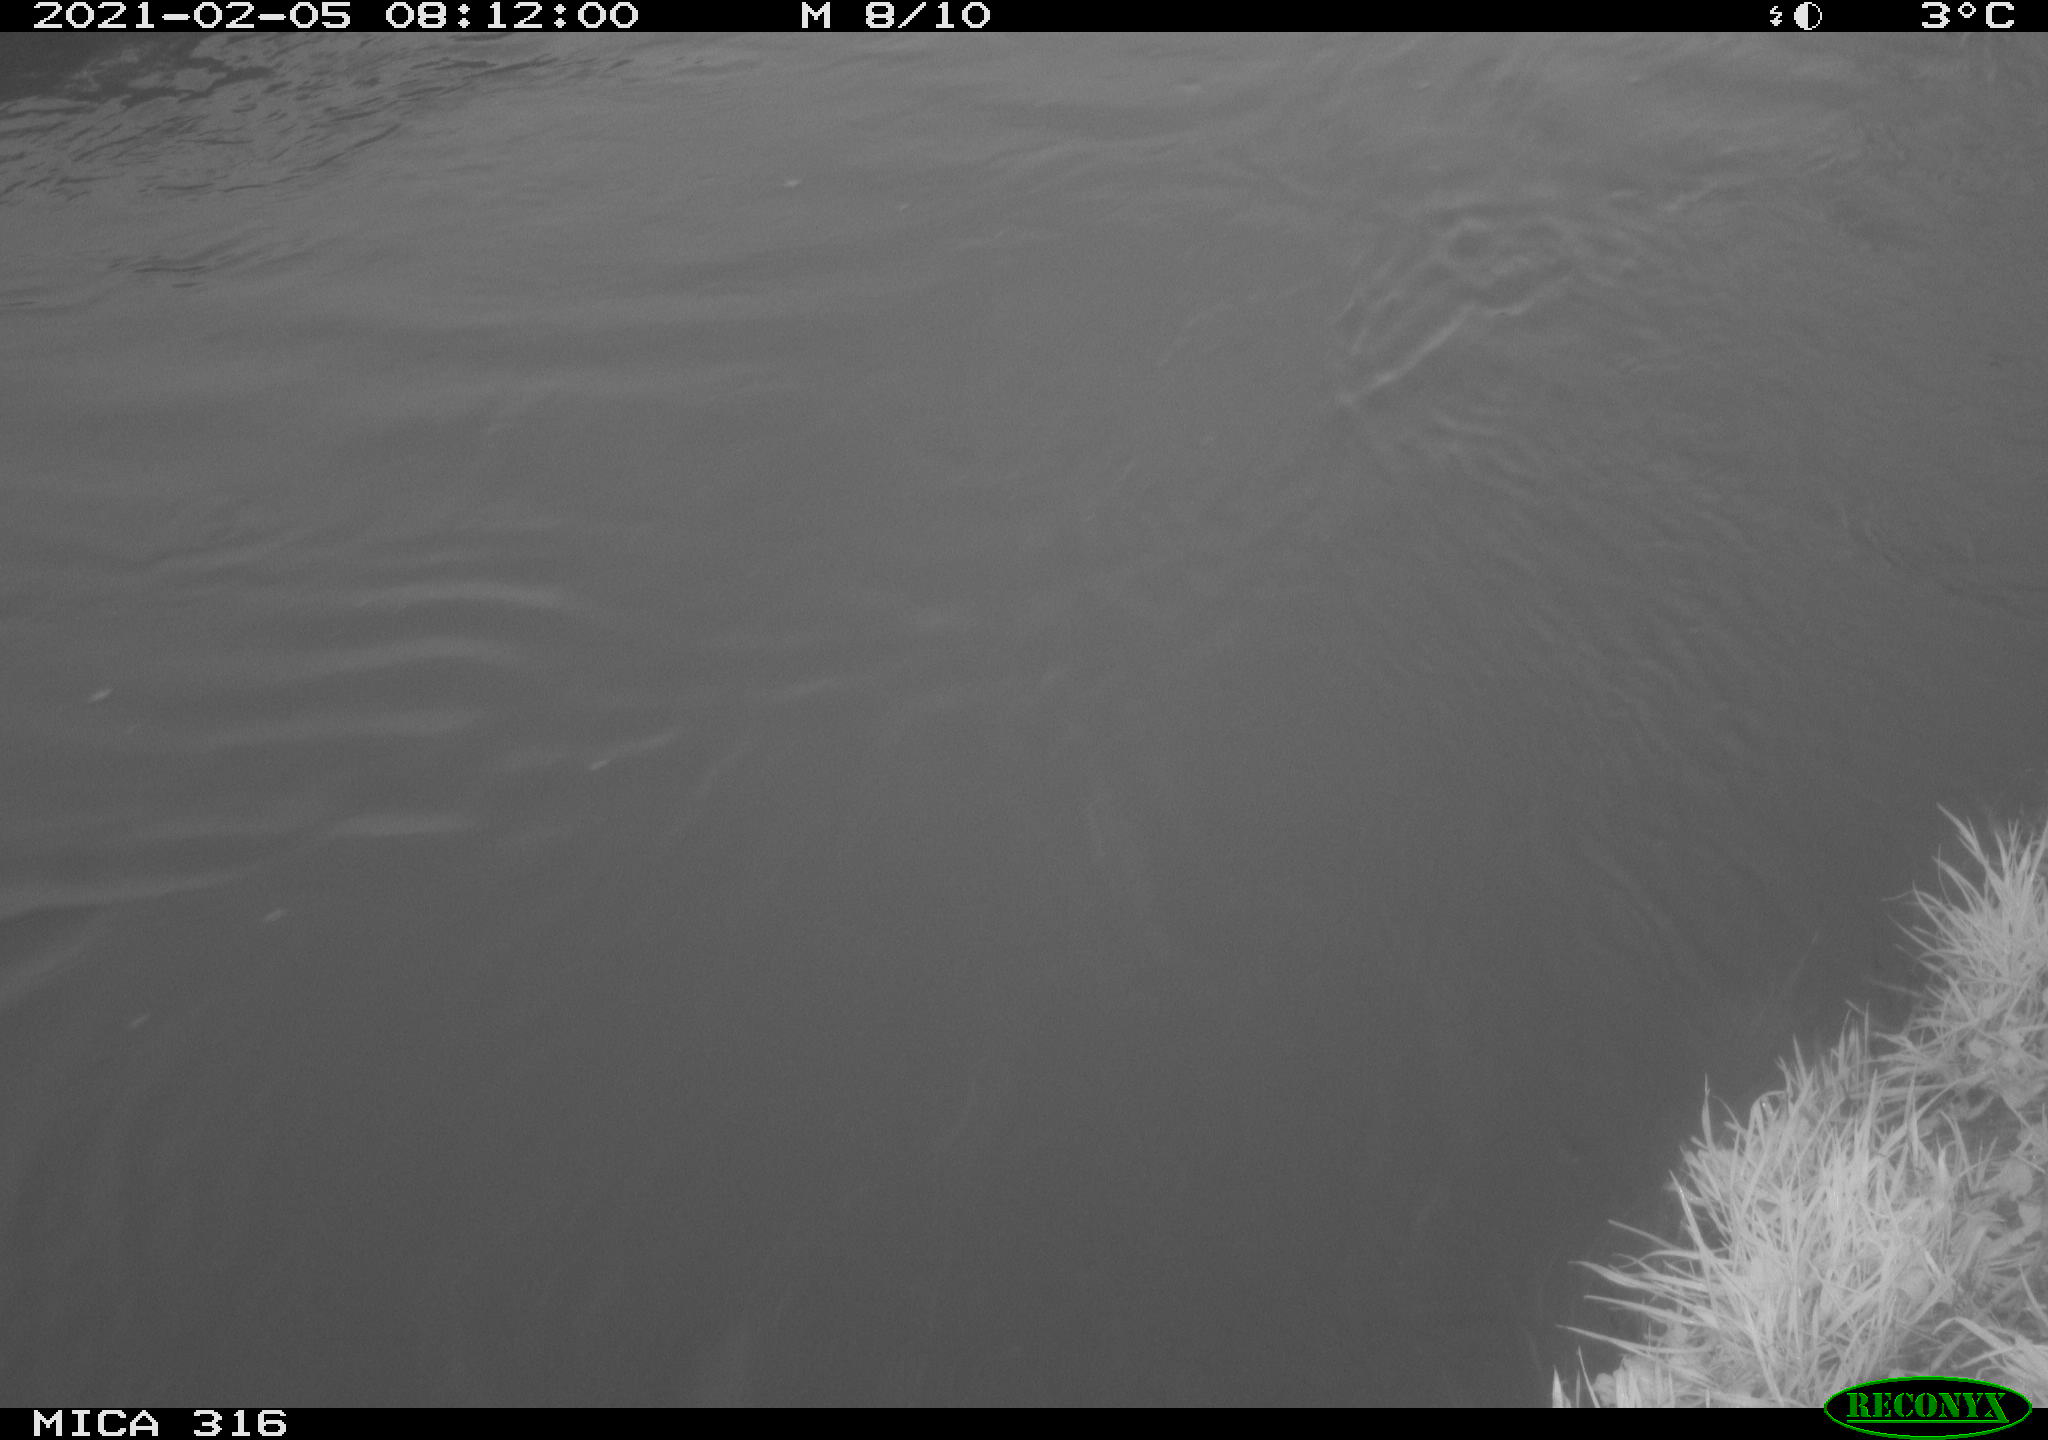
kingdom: Animalia
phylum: Chordata
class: Aves
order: Gruiformes
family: Rallidae
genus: Gallinula
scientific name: Gallinula chloropus
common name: Common moorhen
